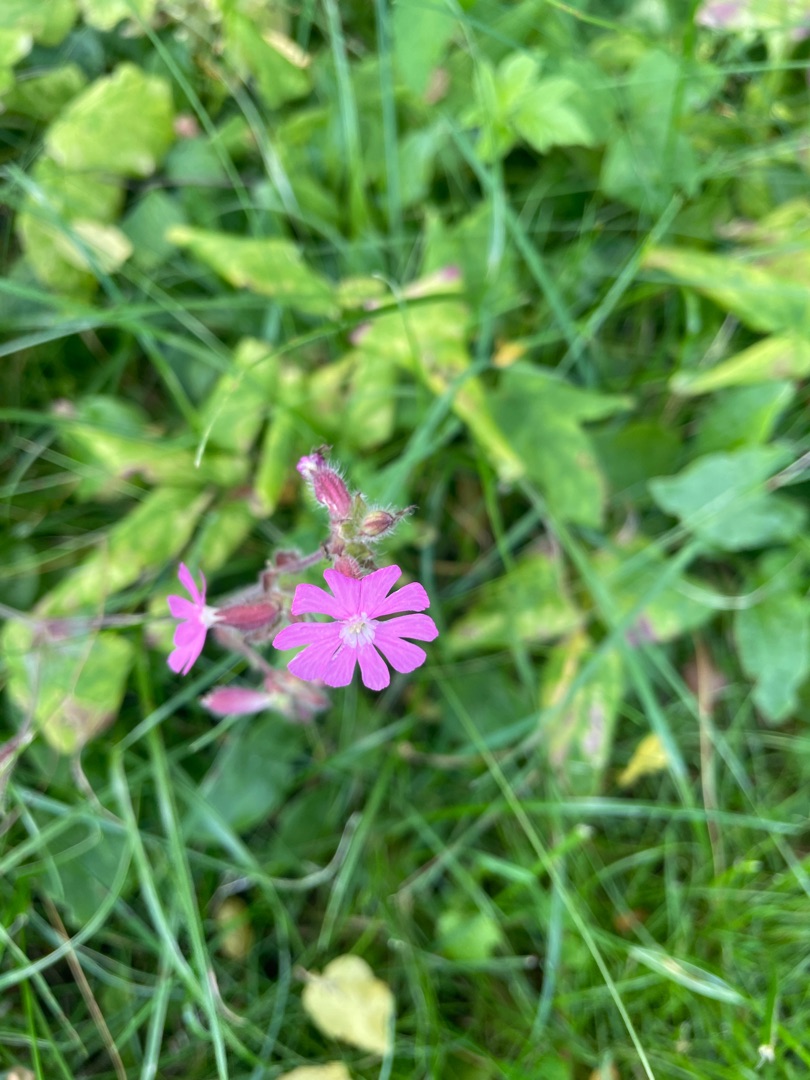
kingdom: Plantae
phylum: Tracheophyta
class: Magnoliopsida
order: Caryophyllales
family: Caryophyllaceae
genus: Silene
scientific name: Silene dioica
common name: Dagpragtstjerne
